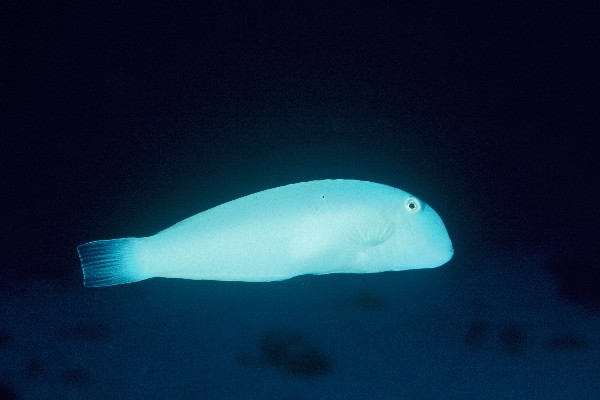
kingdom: Animalia
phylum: Chordata
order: Perciformes
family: Labridae
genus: Cymolutes
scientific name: Cymolutes lecluse
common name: Sharp-headed wrasse
